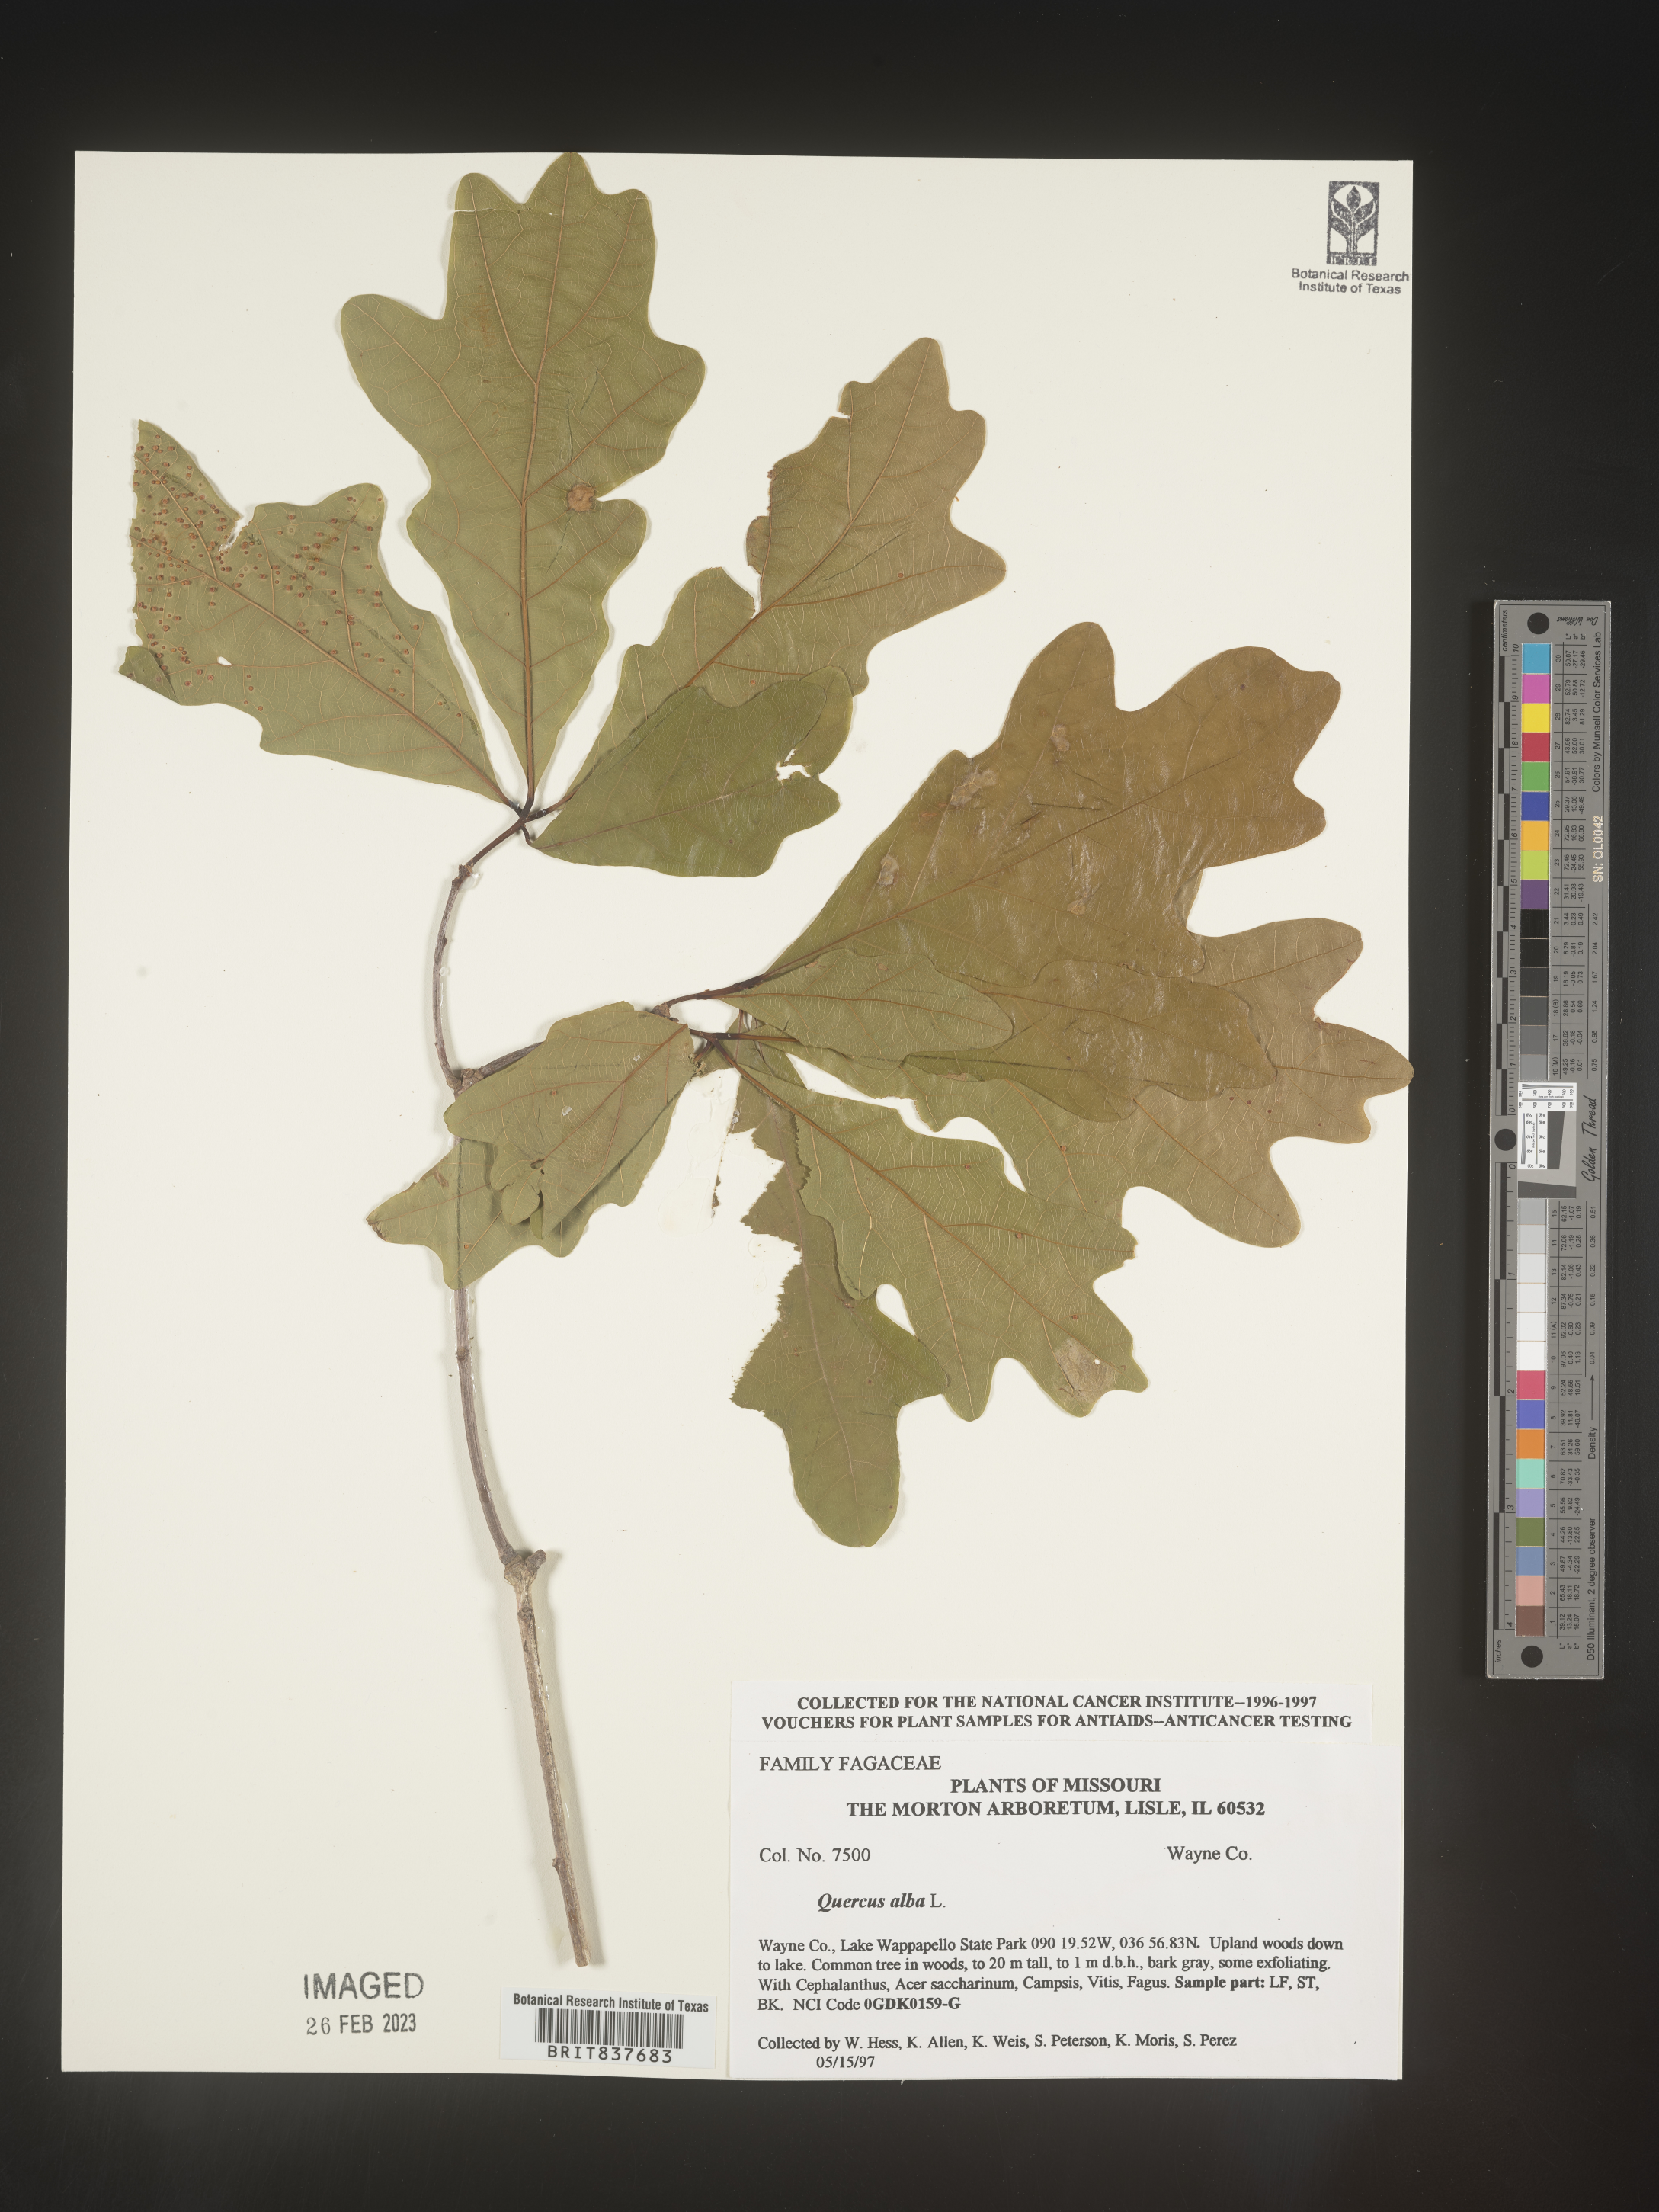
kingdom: Plantae
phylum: Tracheophyta
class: Magnoliopsida
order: Fagales
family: Fagaceae
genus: Quercus
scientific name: Quercus alba
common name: White oak
